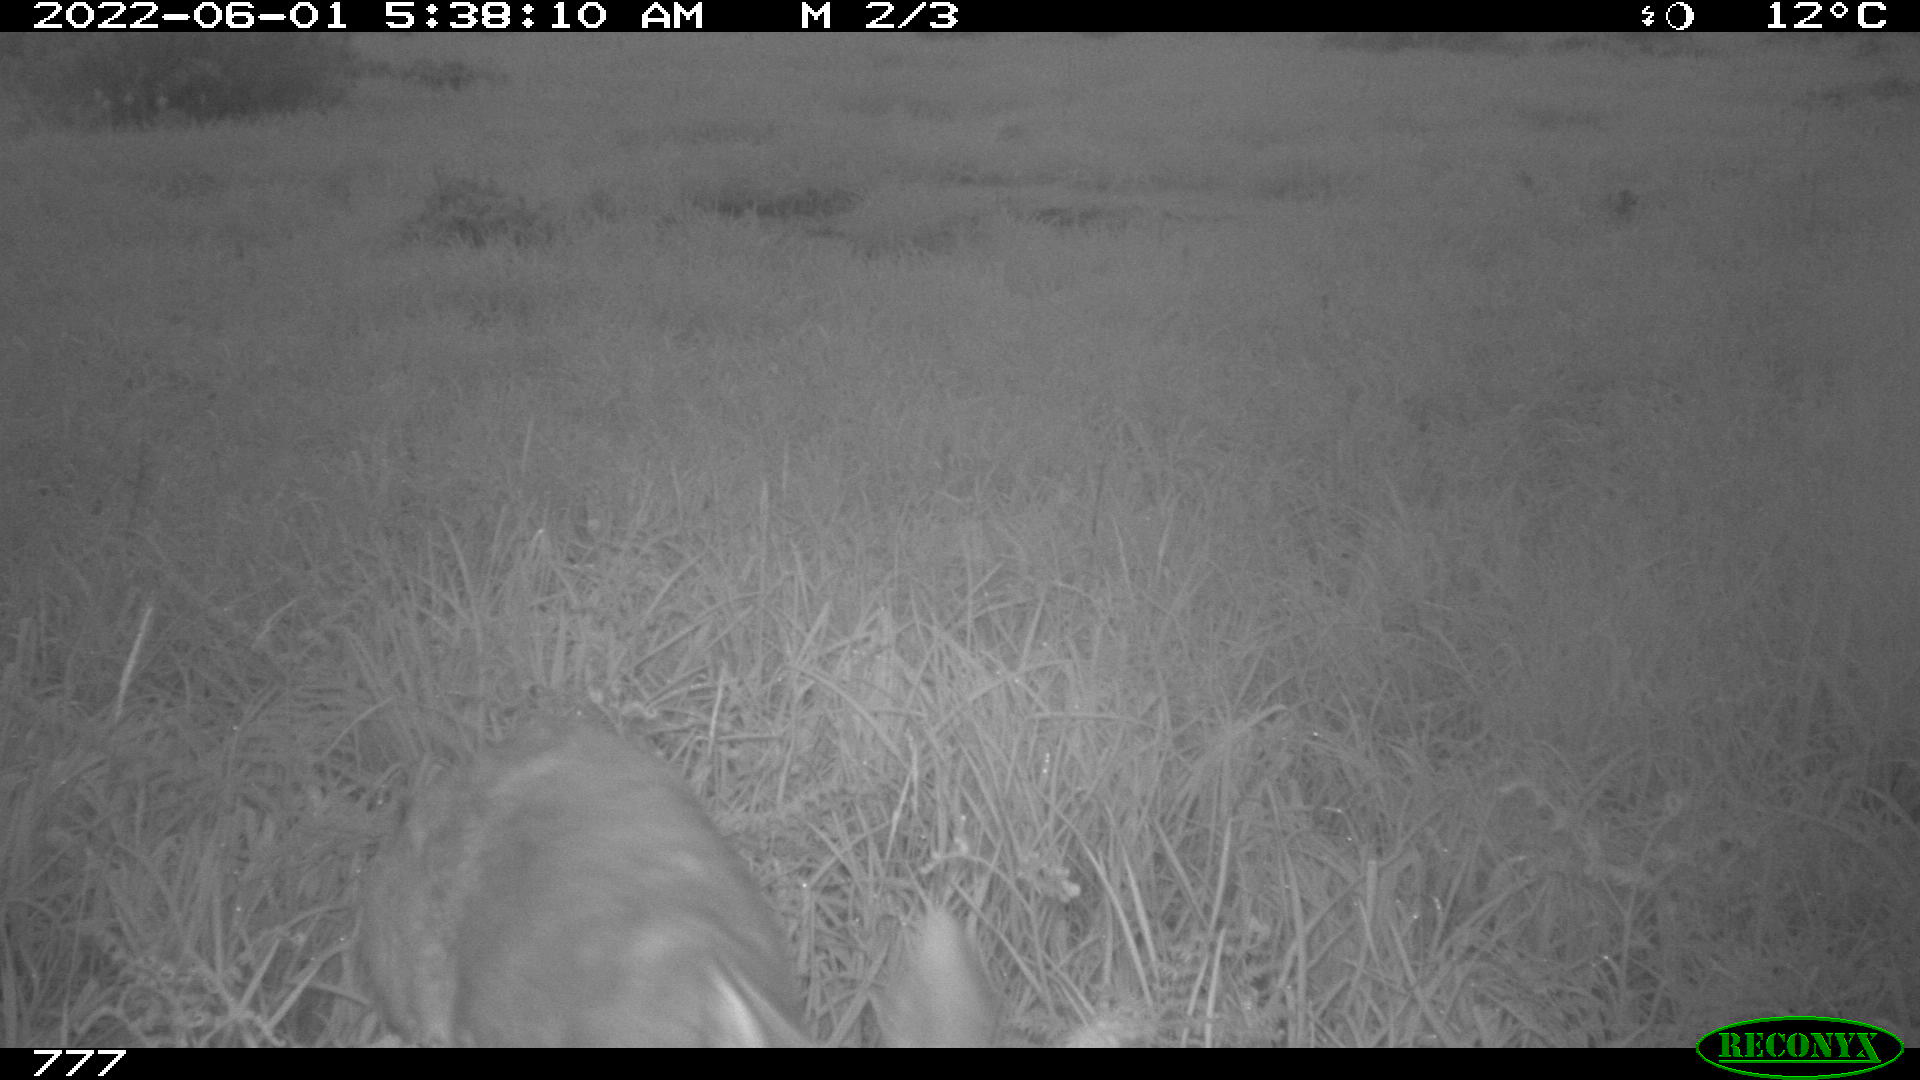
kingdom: Animalia
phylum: Chordata
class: Mammalia
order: Artiodactyla
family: Cervidae
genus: Capreolus
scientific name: Capreolus capreolus
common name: Western roe deer
